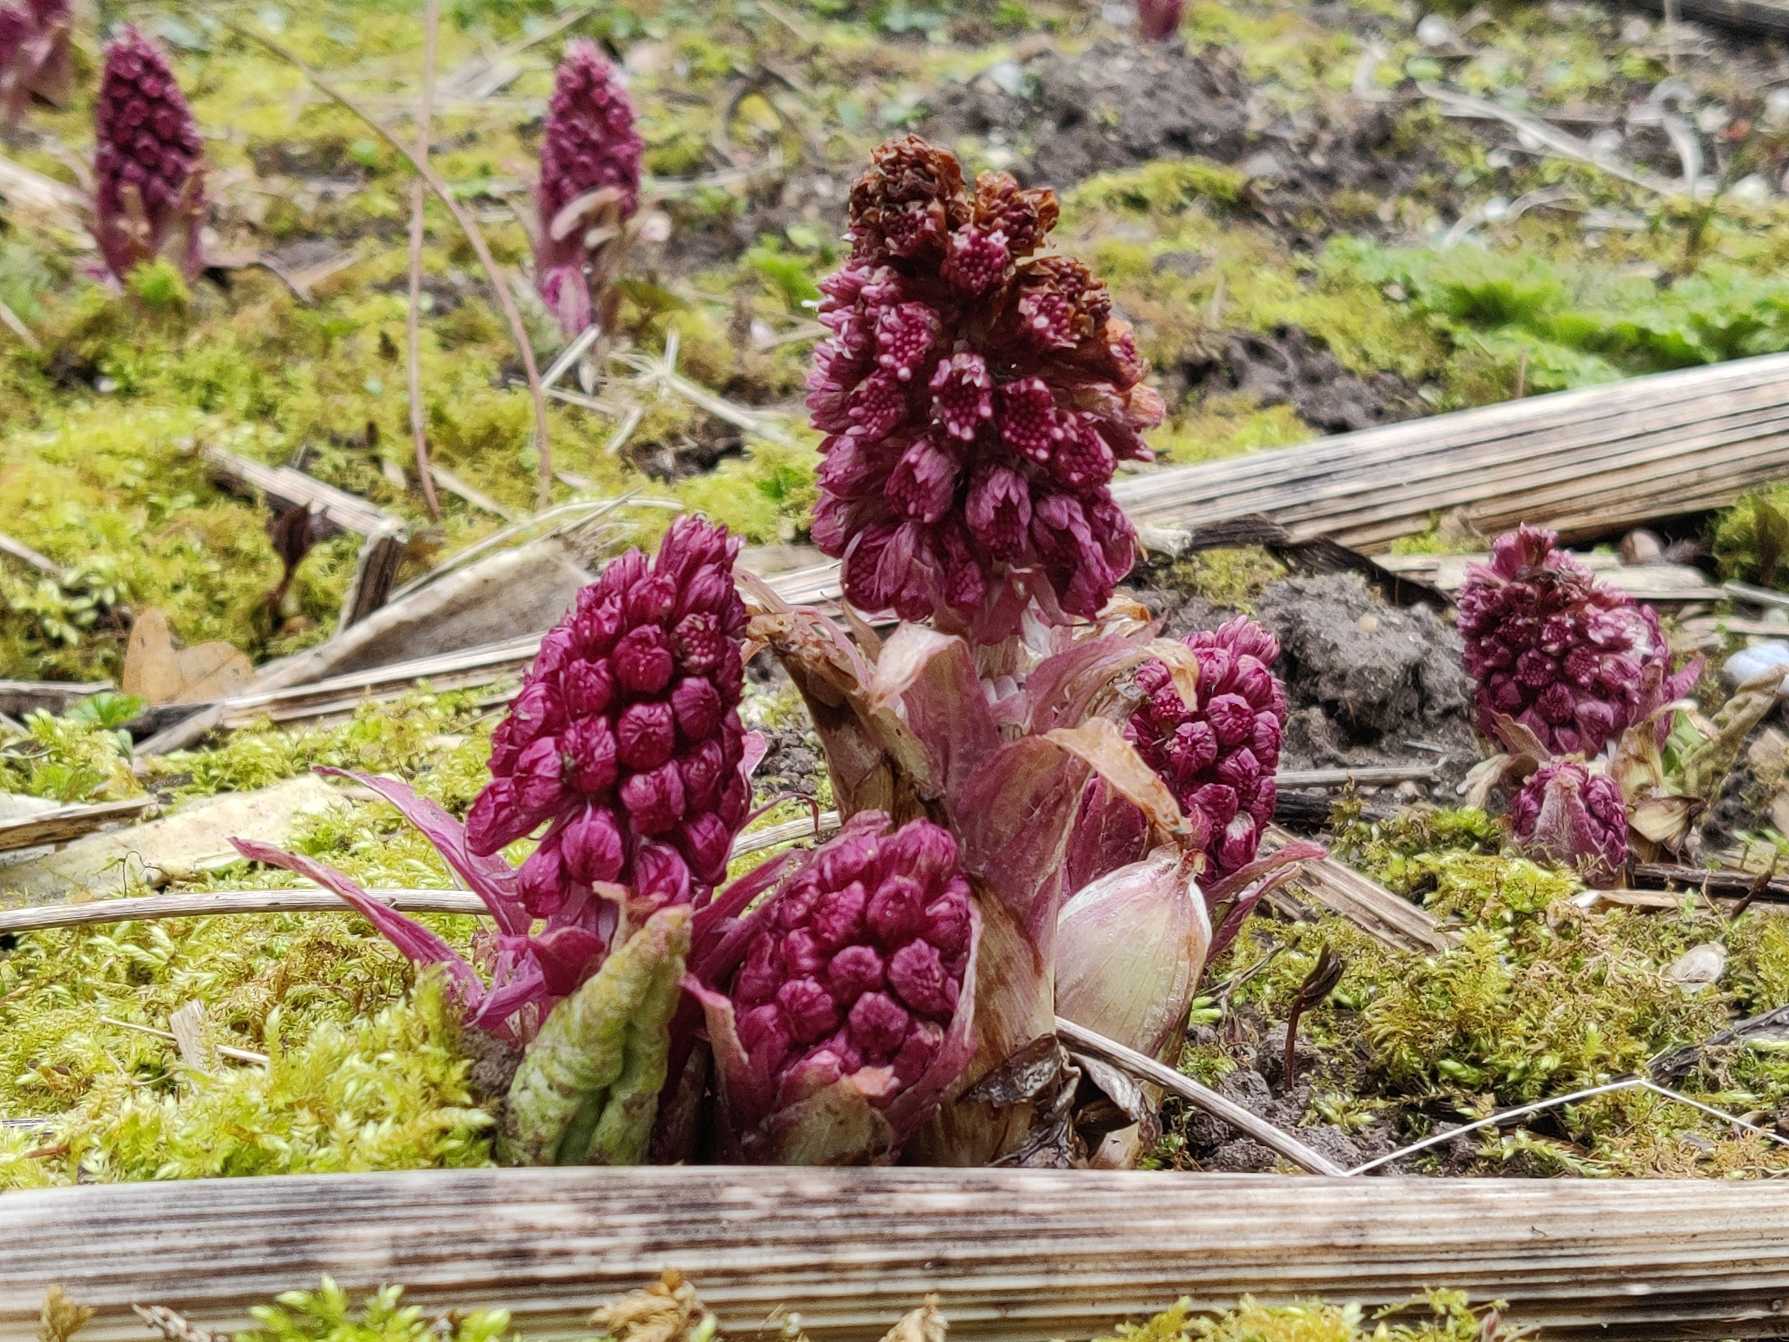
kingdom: Plantae
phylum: Tracheophyta
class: Magnoliopsida
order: Asterales
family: Asteraceae
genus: Petasites
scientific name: Petasites hybridus
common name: Rød hestehov
